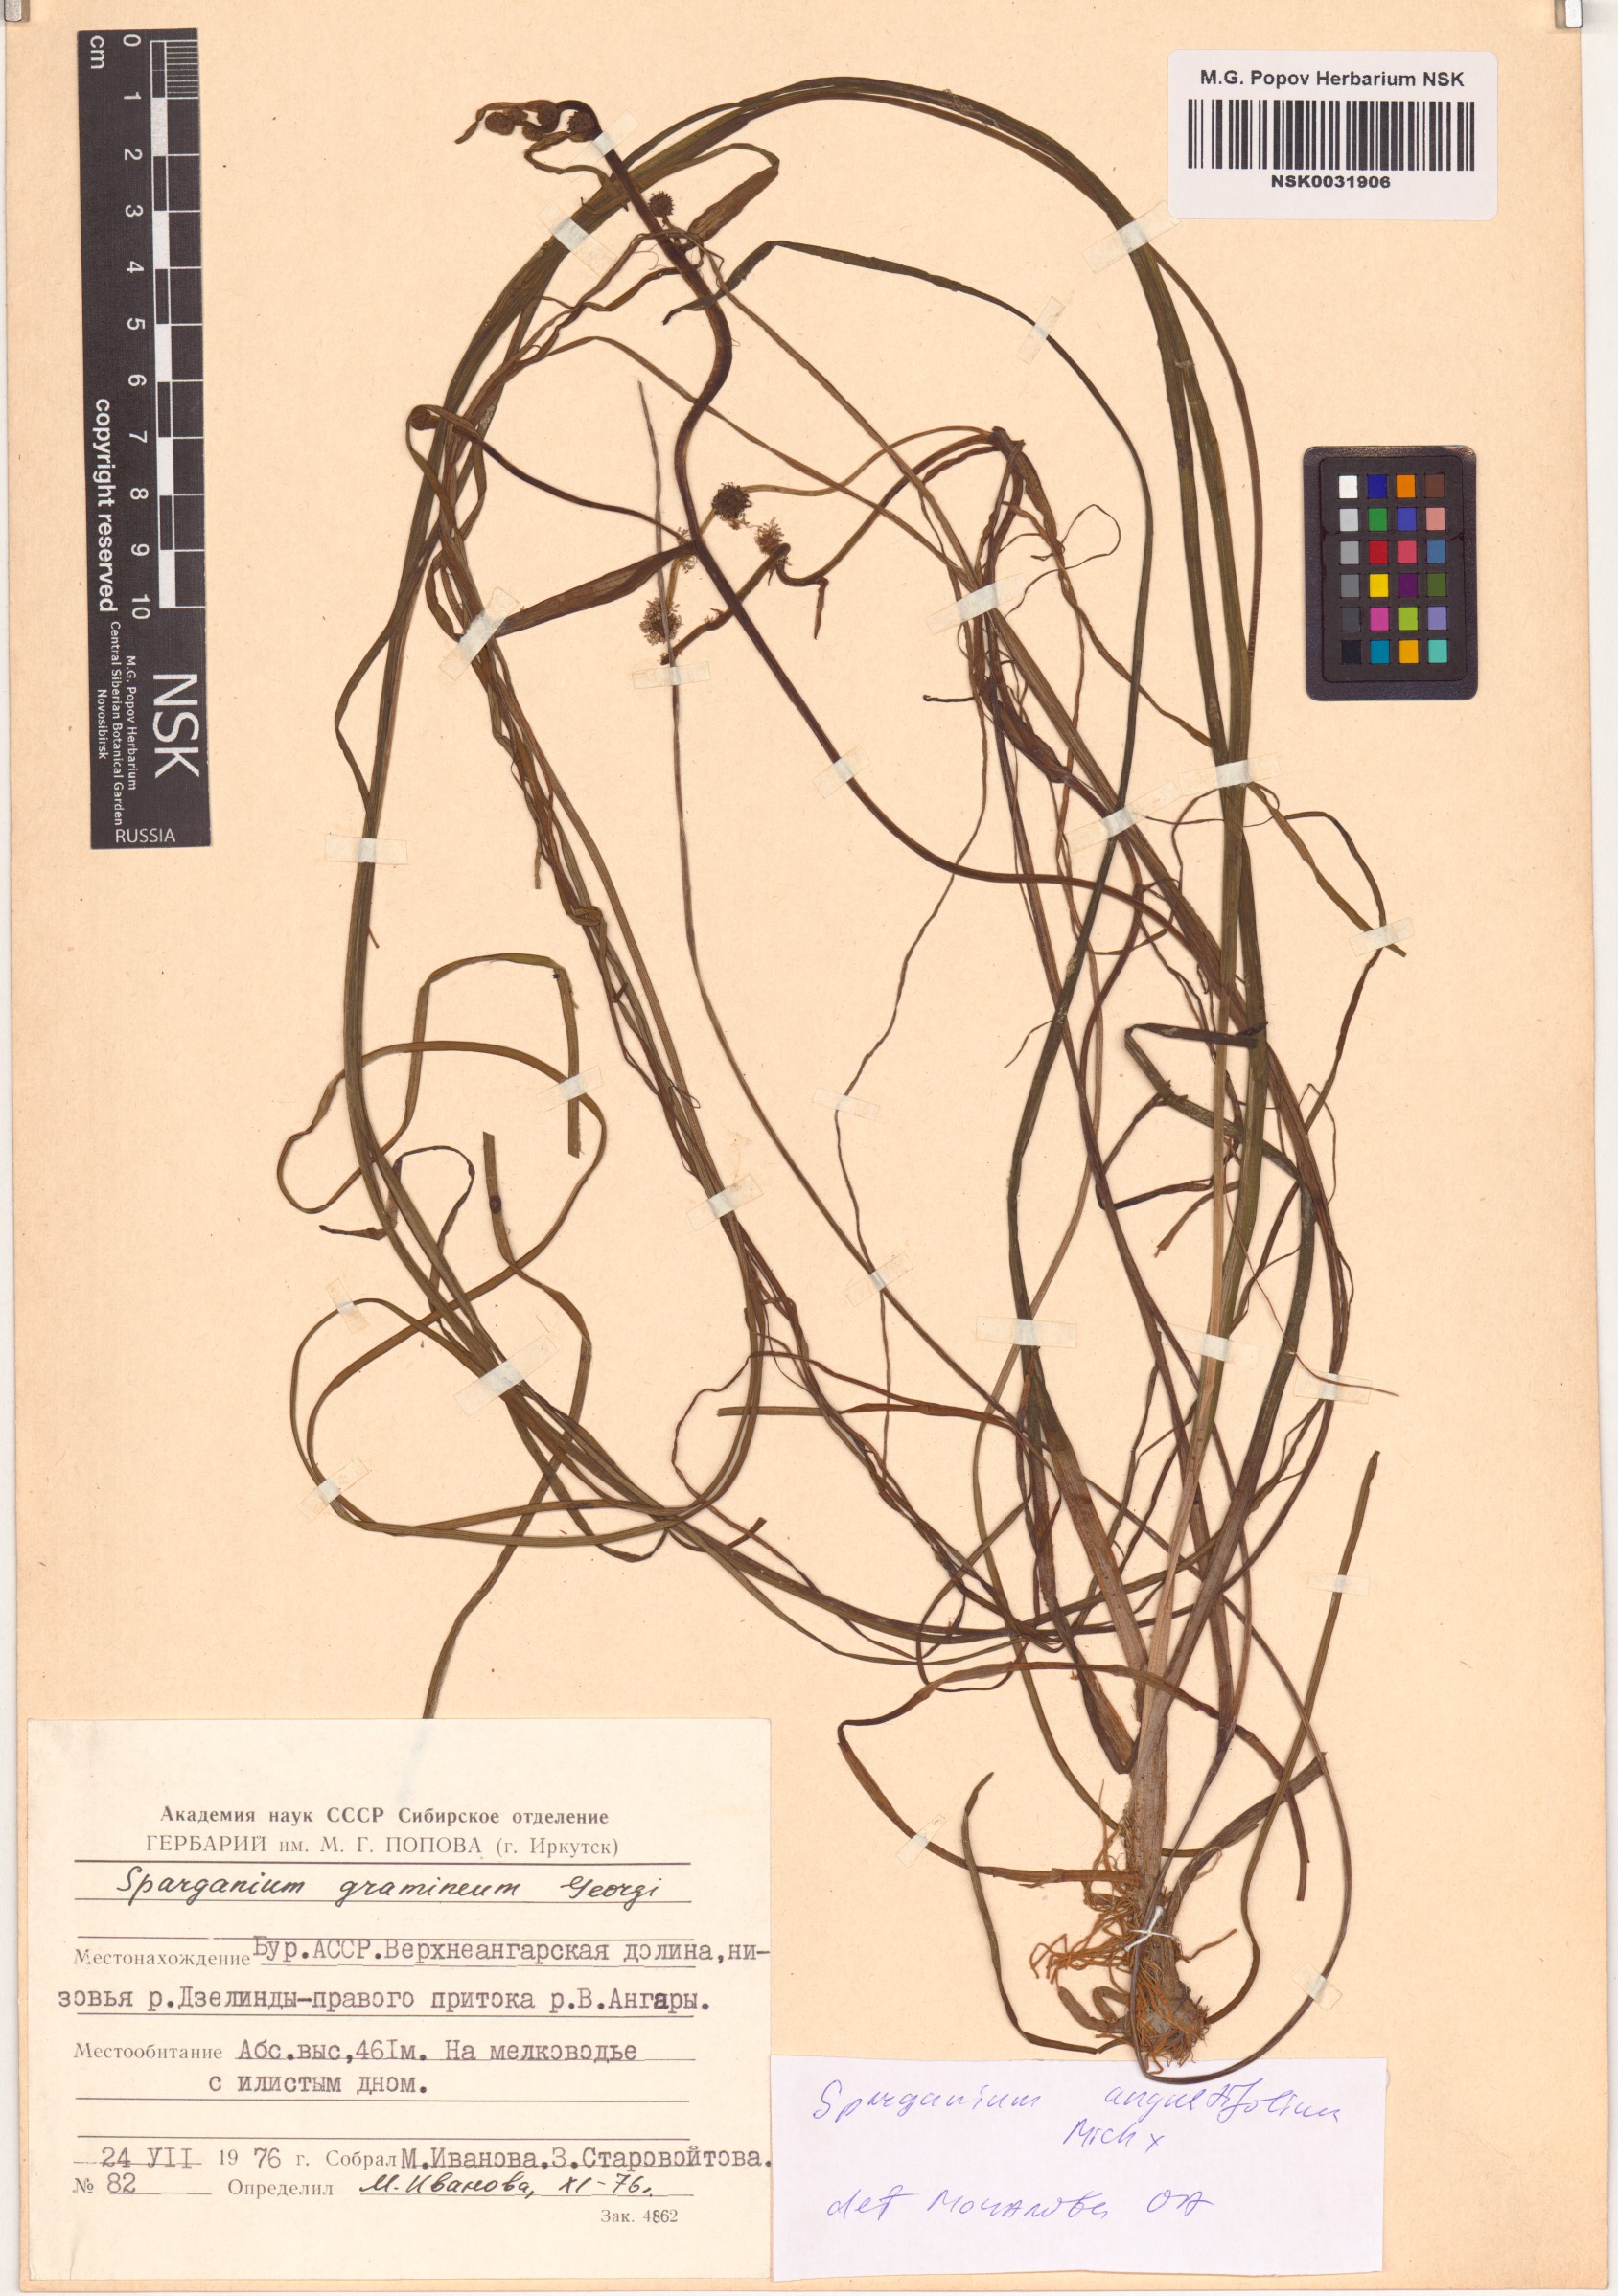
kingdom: Plantae
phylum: Tracheophyta
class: Liliopsida
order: Poales
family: Typhaceae
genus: Sparganium
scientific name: Sparganium angustifolium
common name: Floating bur-reed
